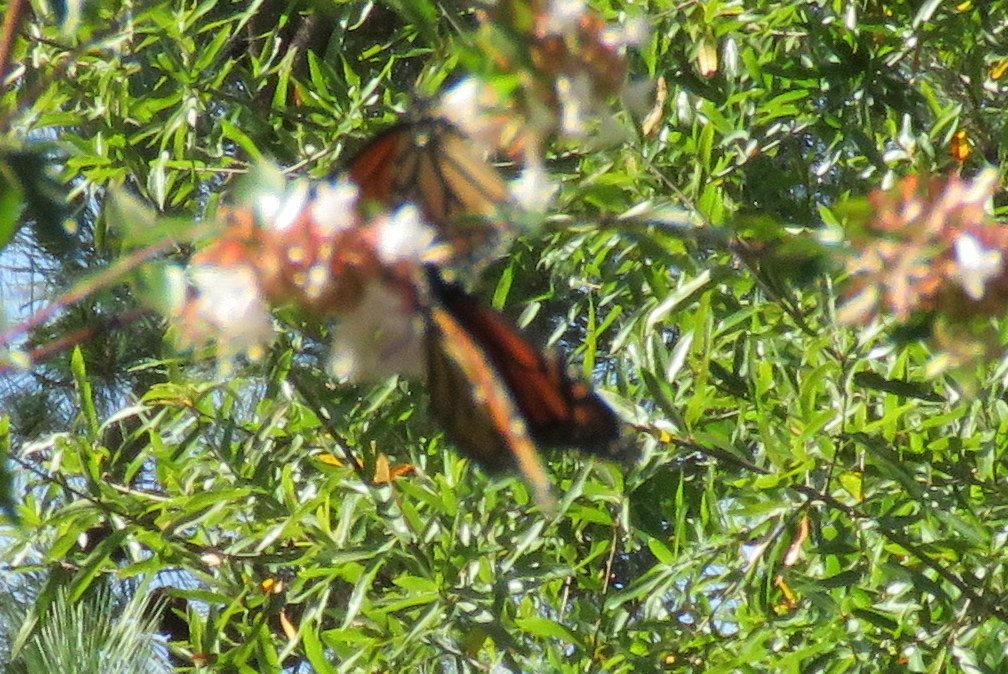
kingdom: Animalia
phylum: Arthropoda
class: Insecta
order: Lepidoptera
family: Nymphalidae
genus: Danaus
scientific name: Danaus plexippus
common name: Monarch
